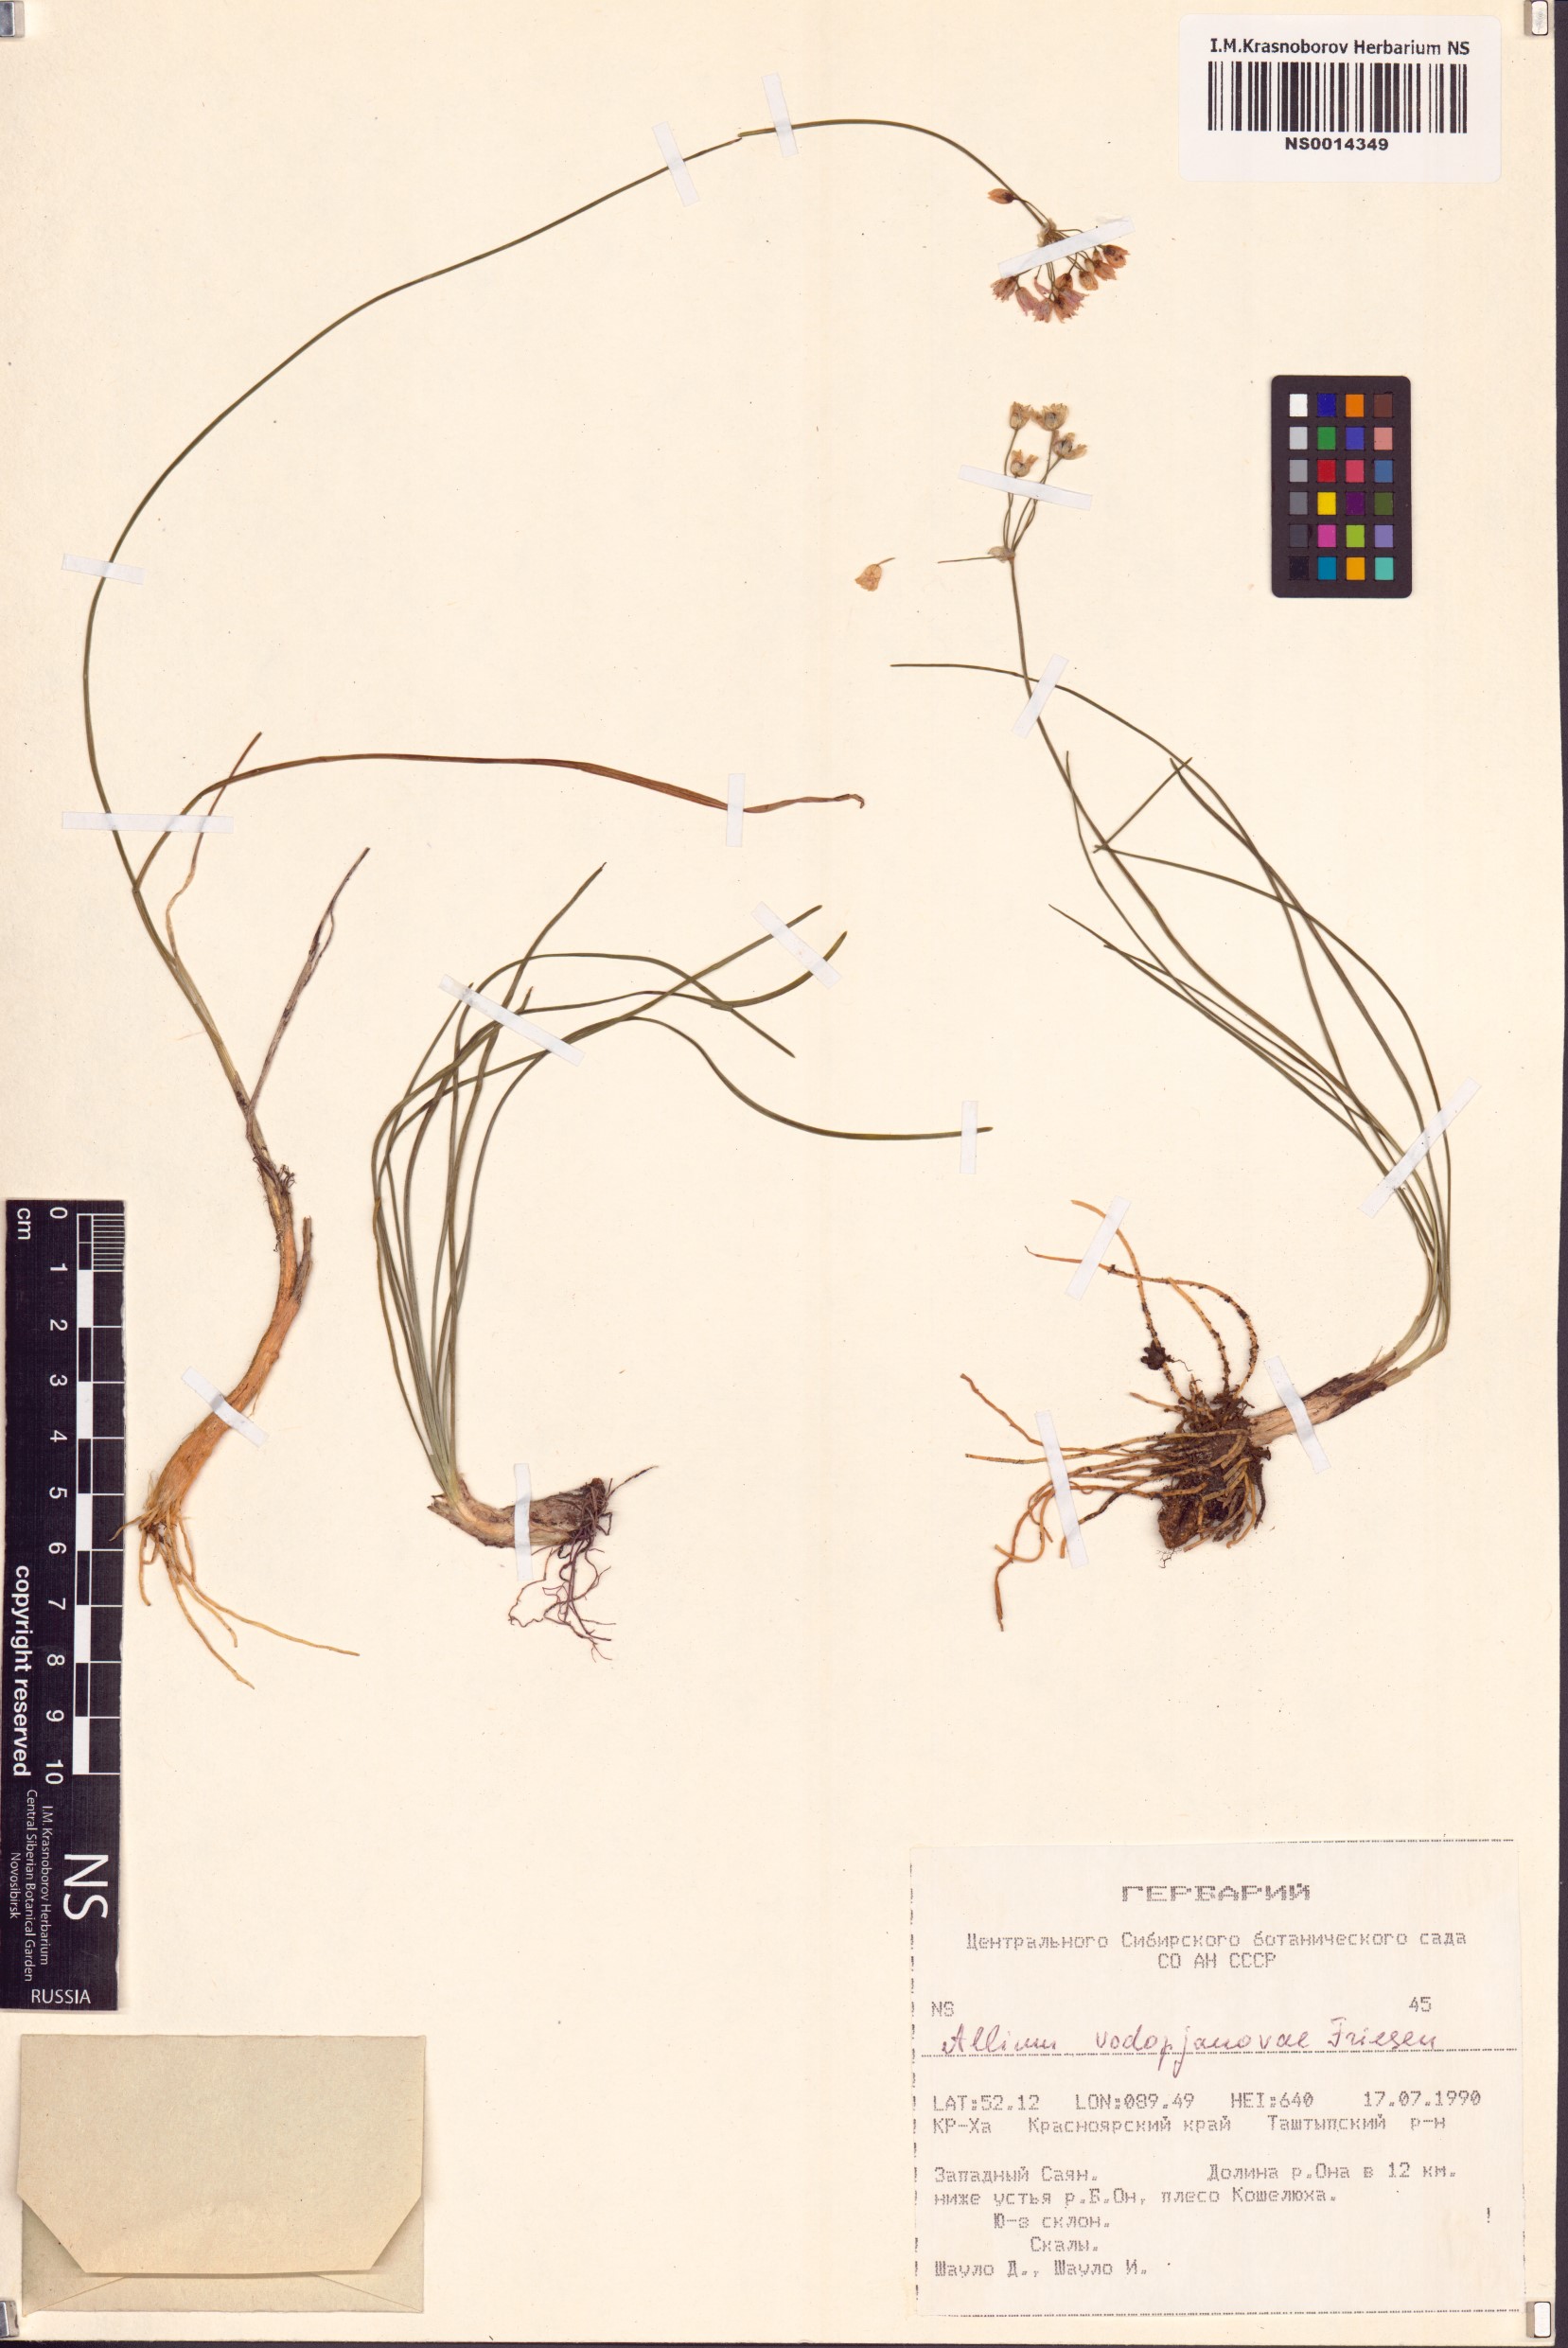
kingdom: Plantae
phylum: Tracheophyta
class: Liliopsida
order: Asparagales
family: Amaryllidaceae
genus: Allium
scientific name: Allium vodopjanovae
